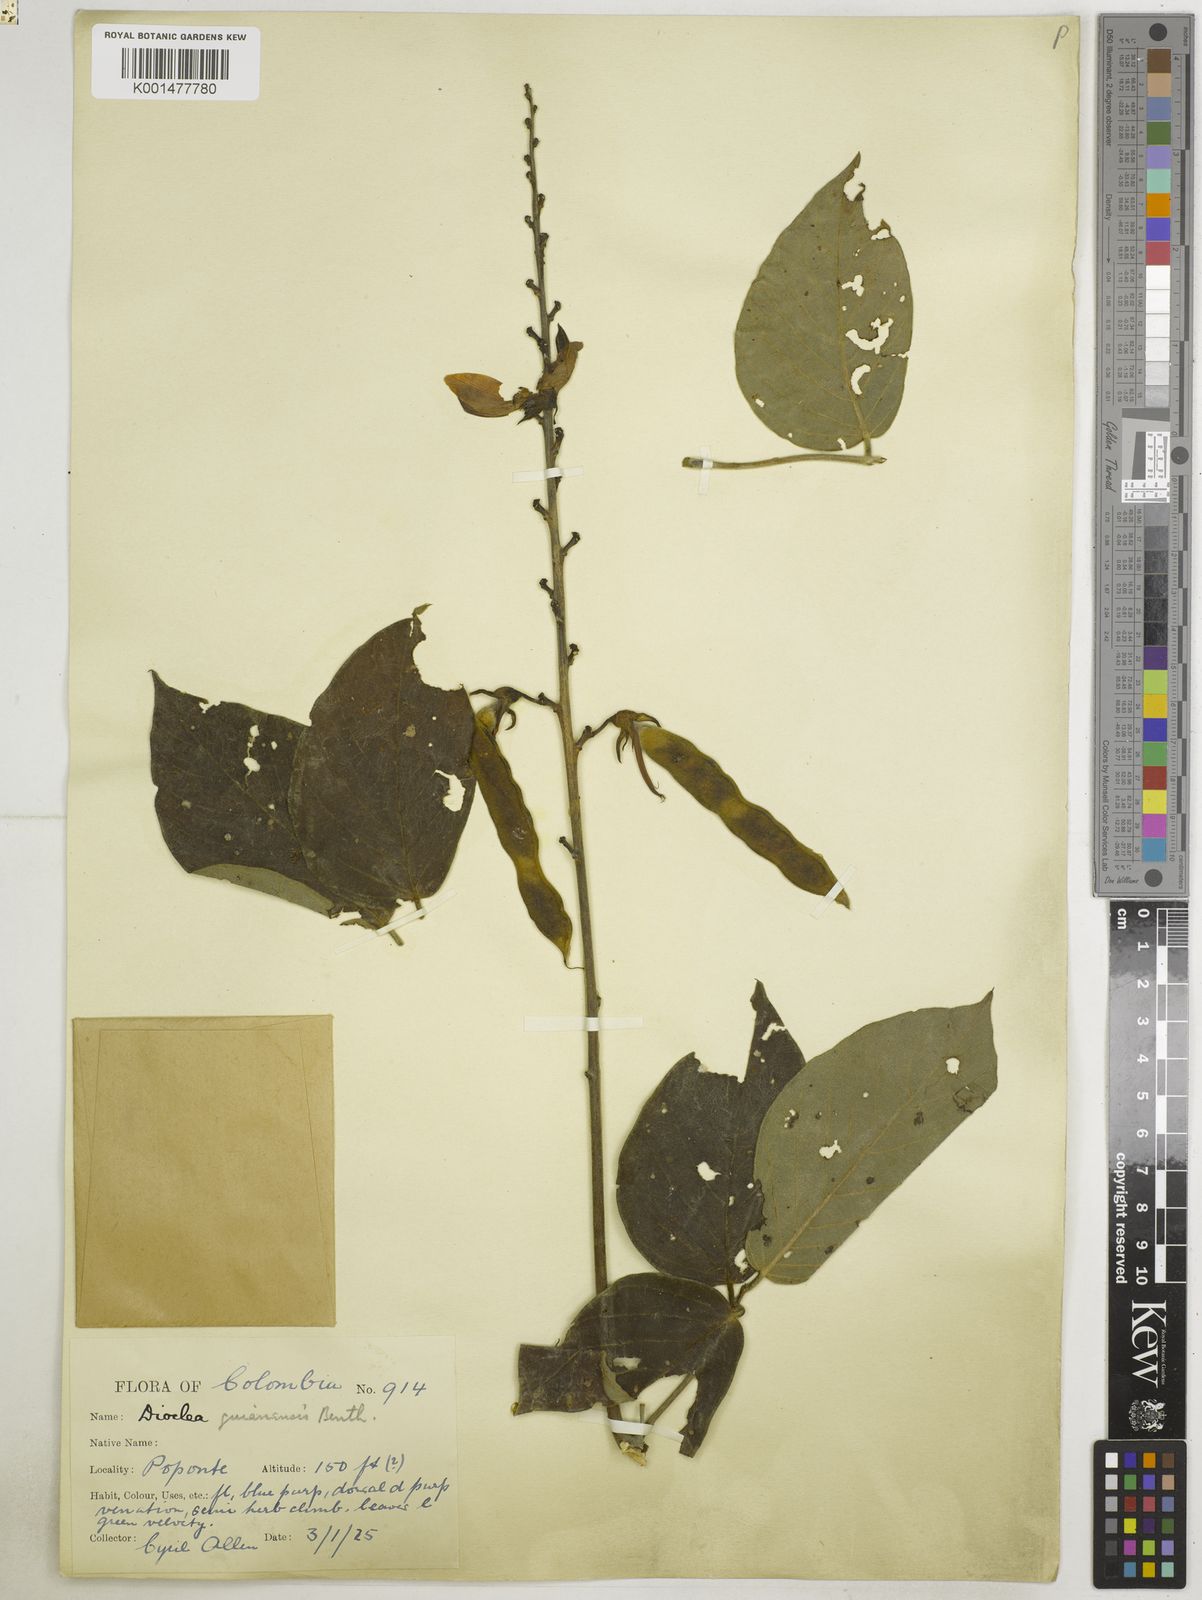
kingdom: Plantae
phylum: Tracheophyta
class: Magnoliopsida
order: Fabales
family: Fabaceae
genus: Dioclea
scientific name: Dioclea guianensis
